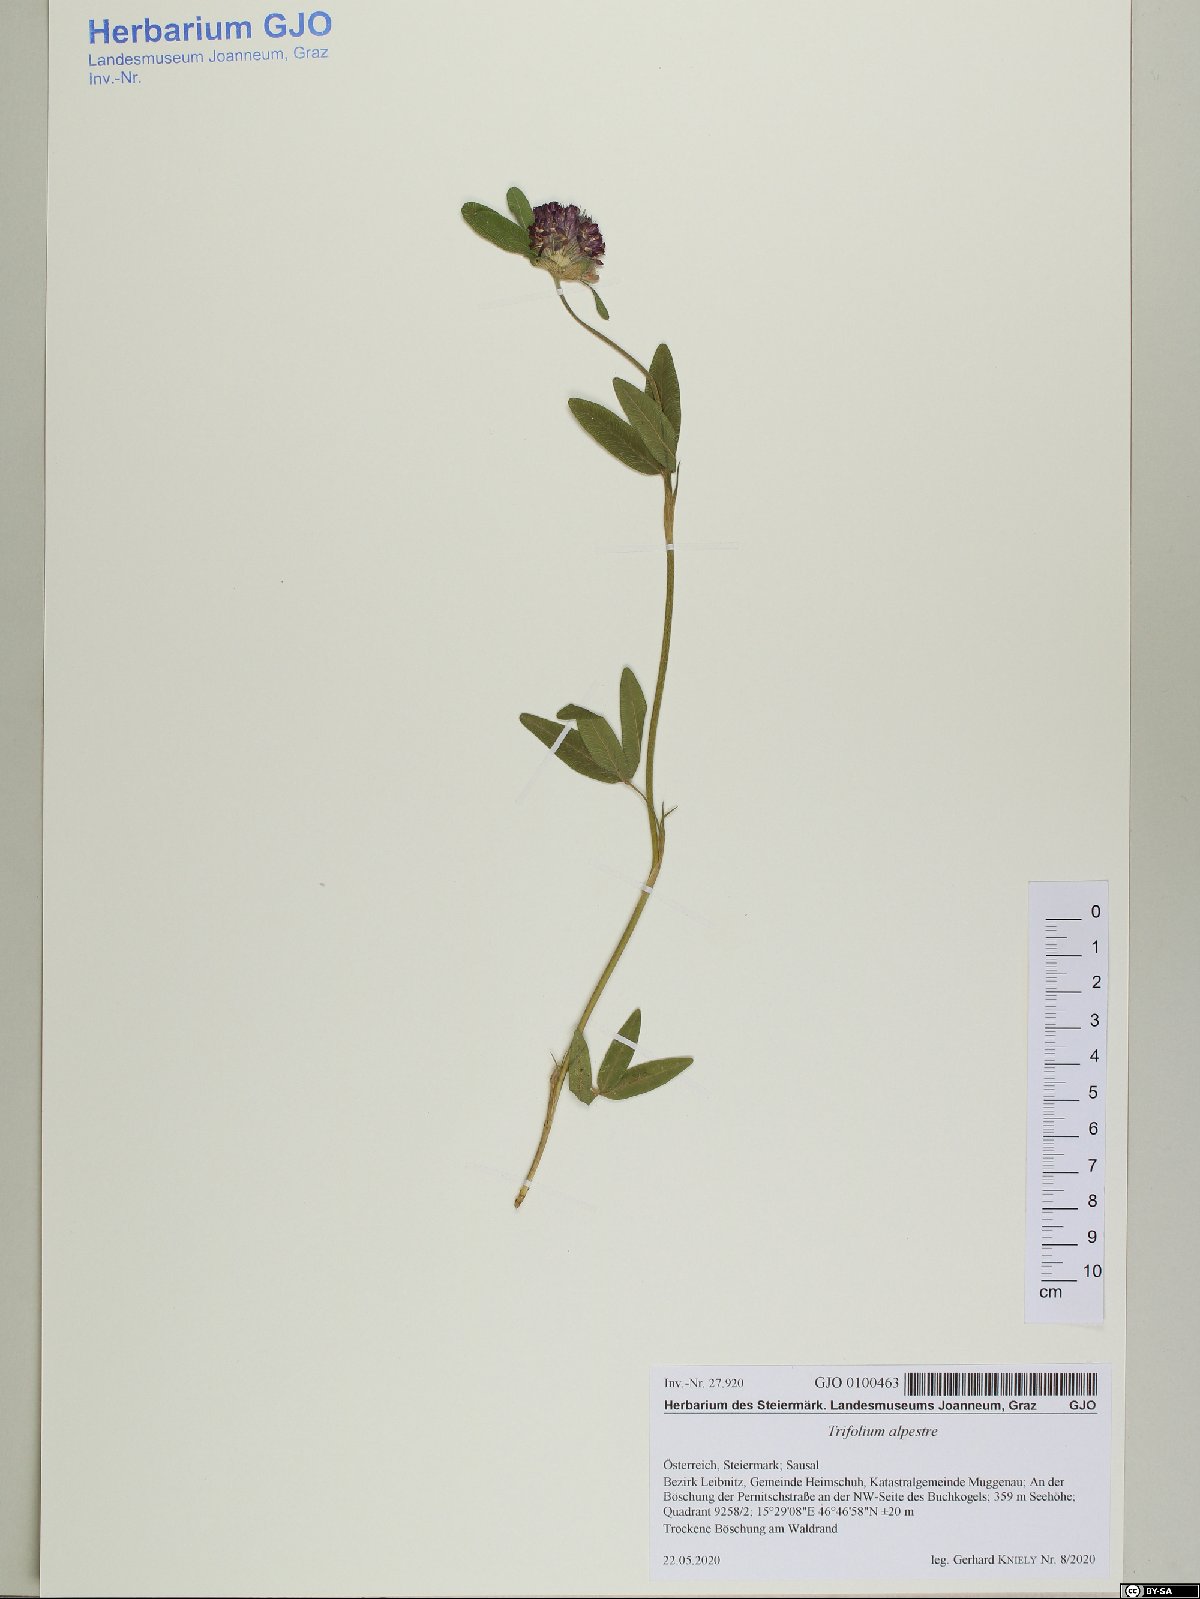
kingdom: Plantae
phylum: Tracheophyta
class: Magnoliopsida
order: Fabales
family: Fabaceae
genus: Trifolium
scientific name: Trifolium alpestre
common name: Owl-head clover
